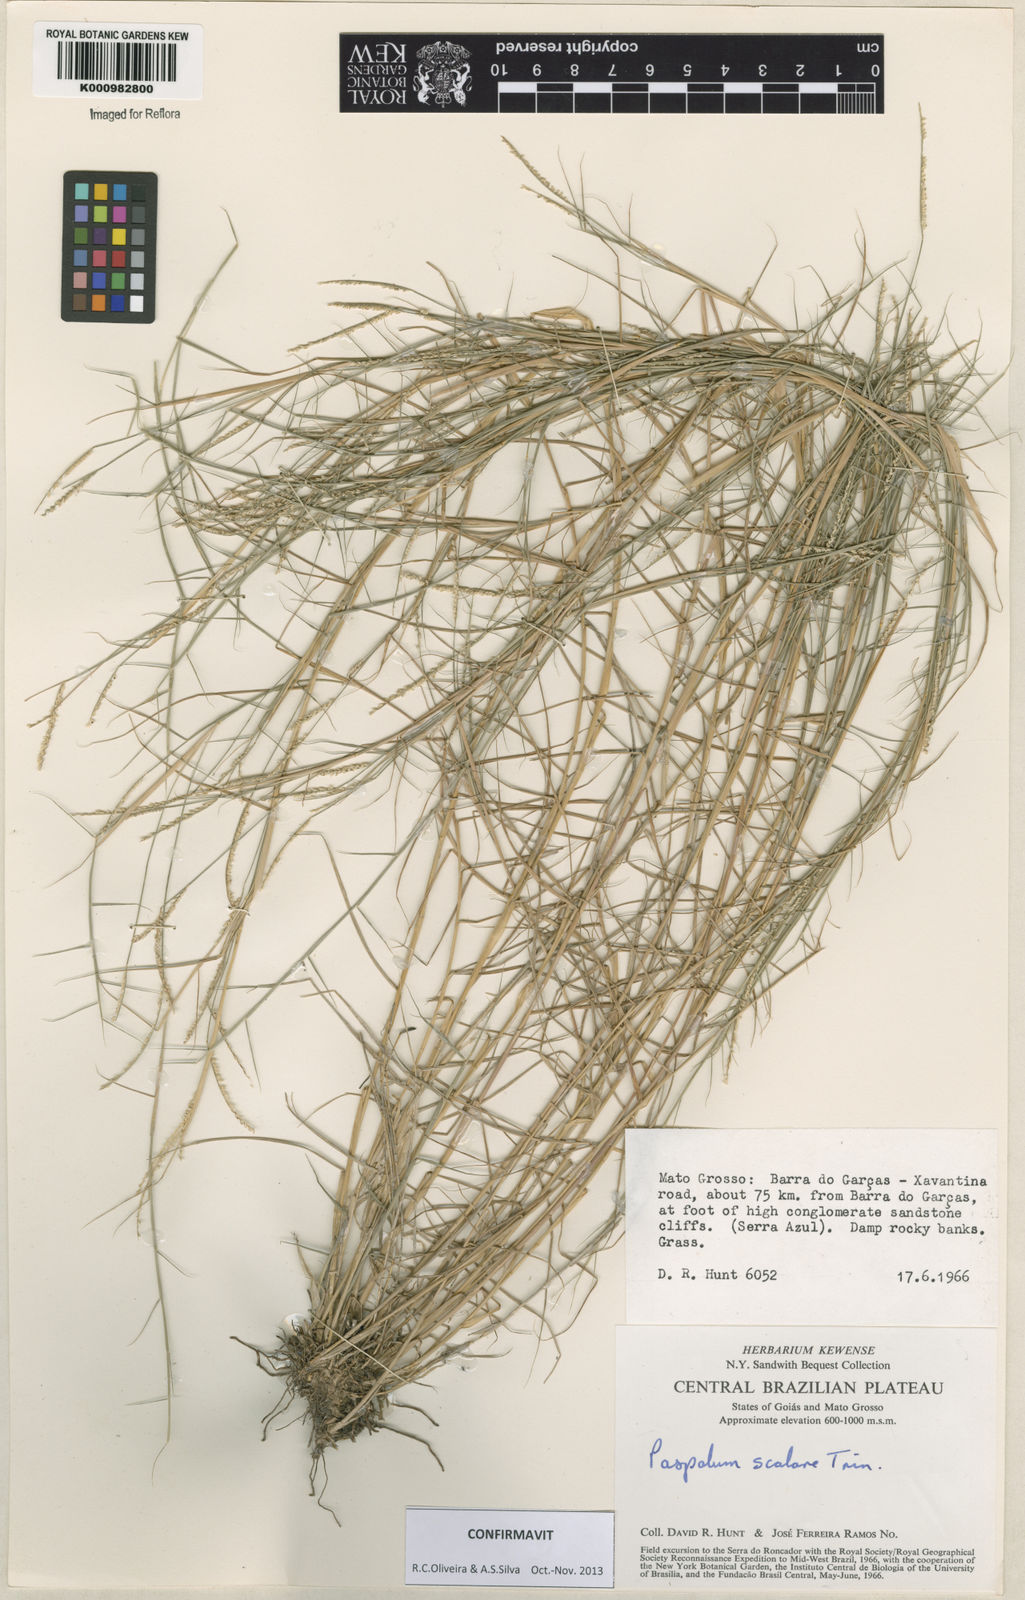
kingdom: Plantae
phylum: Tracheophyta
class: Liliopsida
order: Poales
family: Poaceae
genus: Paspalum
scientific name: Paspalum scalare
